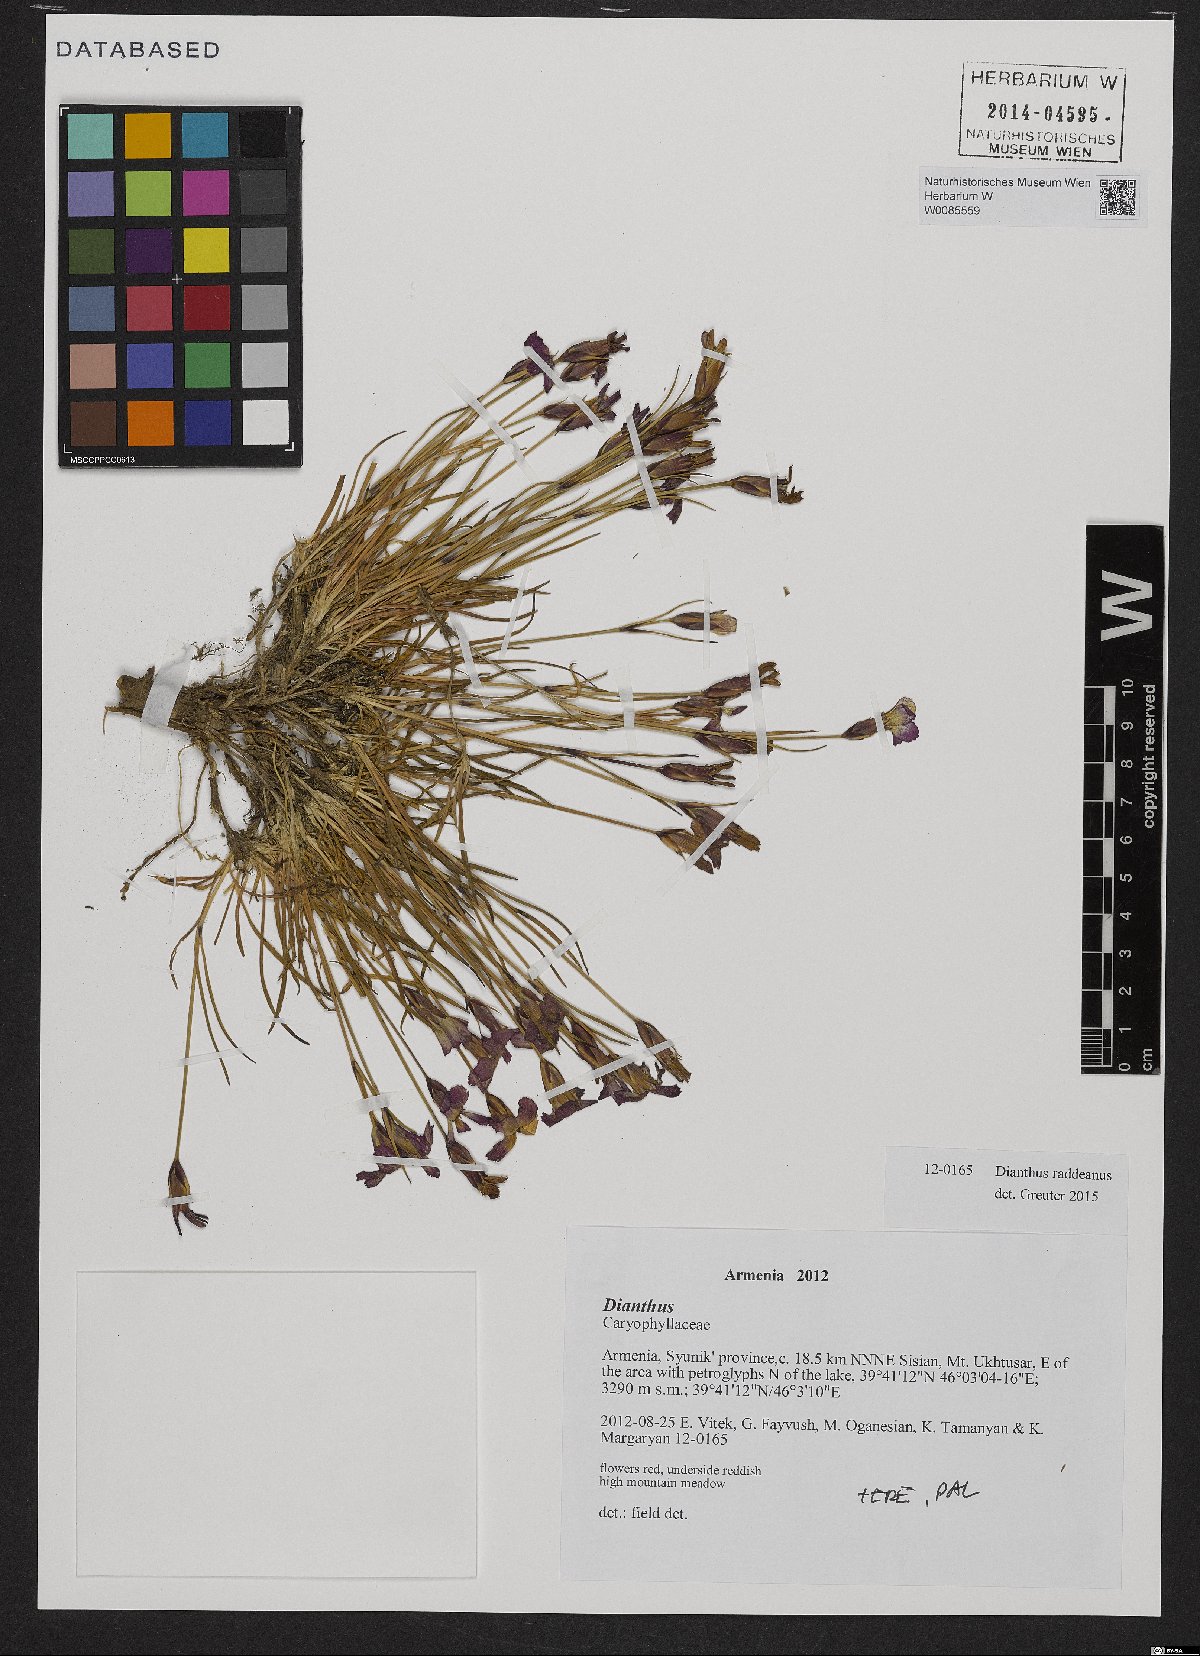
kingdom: Plantae
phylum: Tracheophyta
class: Magnoliopsida
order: Caryophyllales
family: Caryophyllaceae
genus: Dianthus
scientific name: Dianthus raddeanus
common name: Radde's pink
